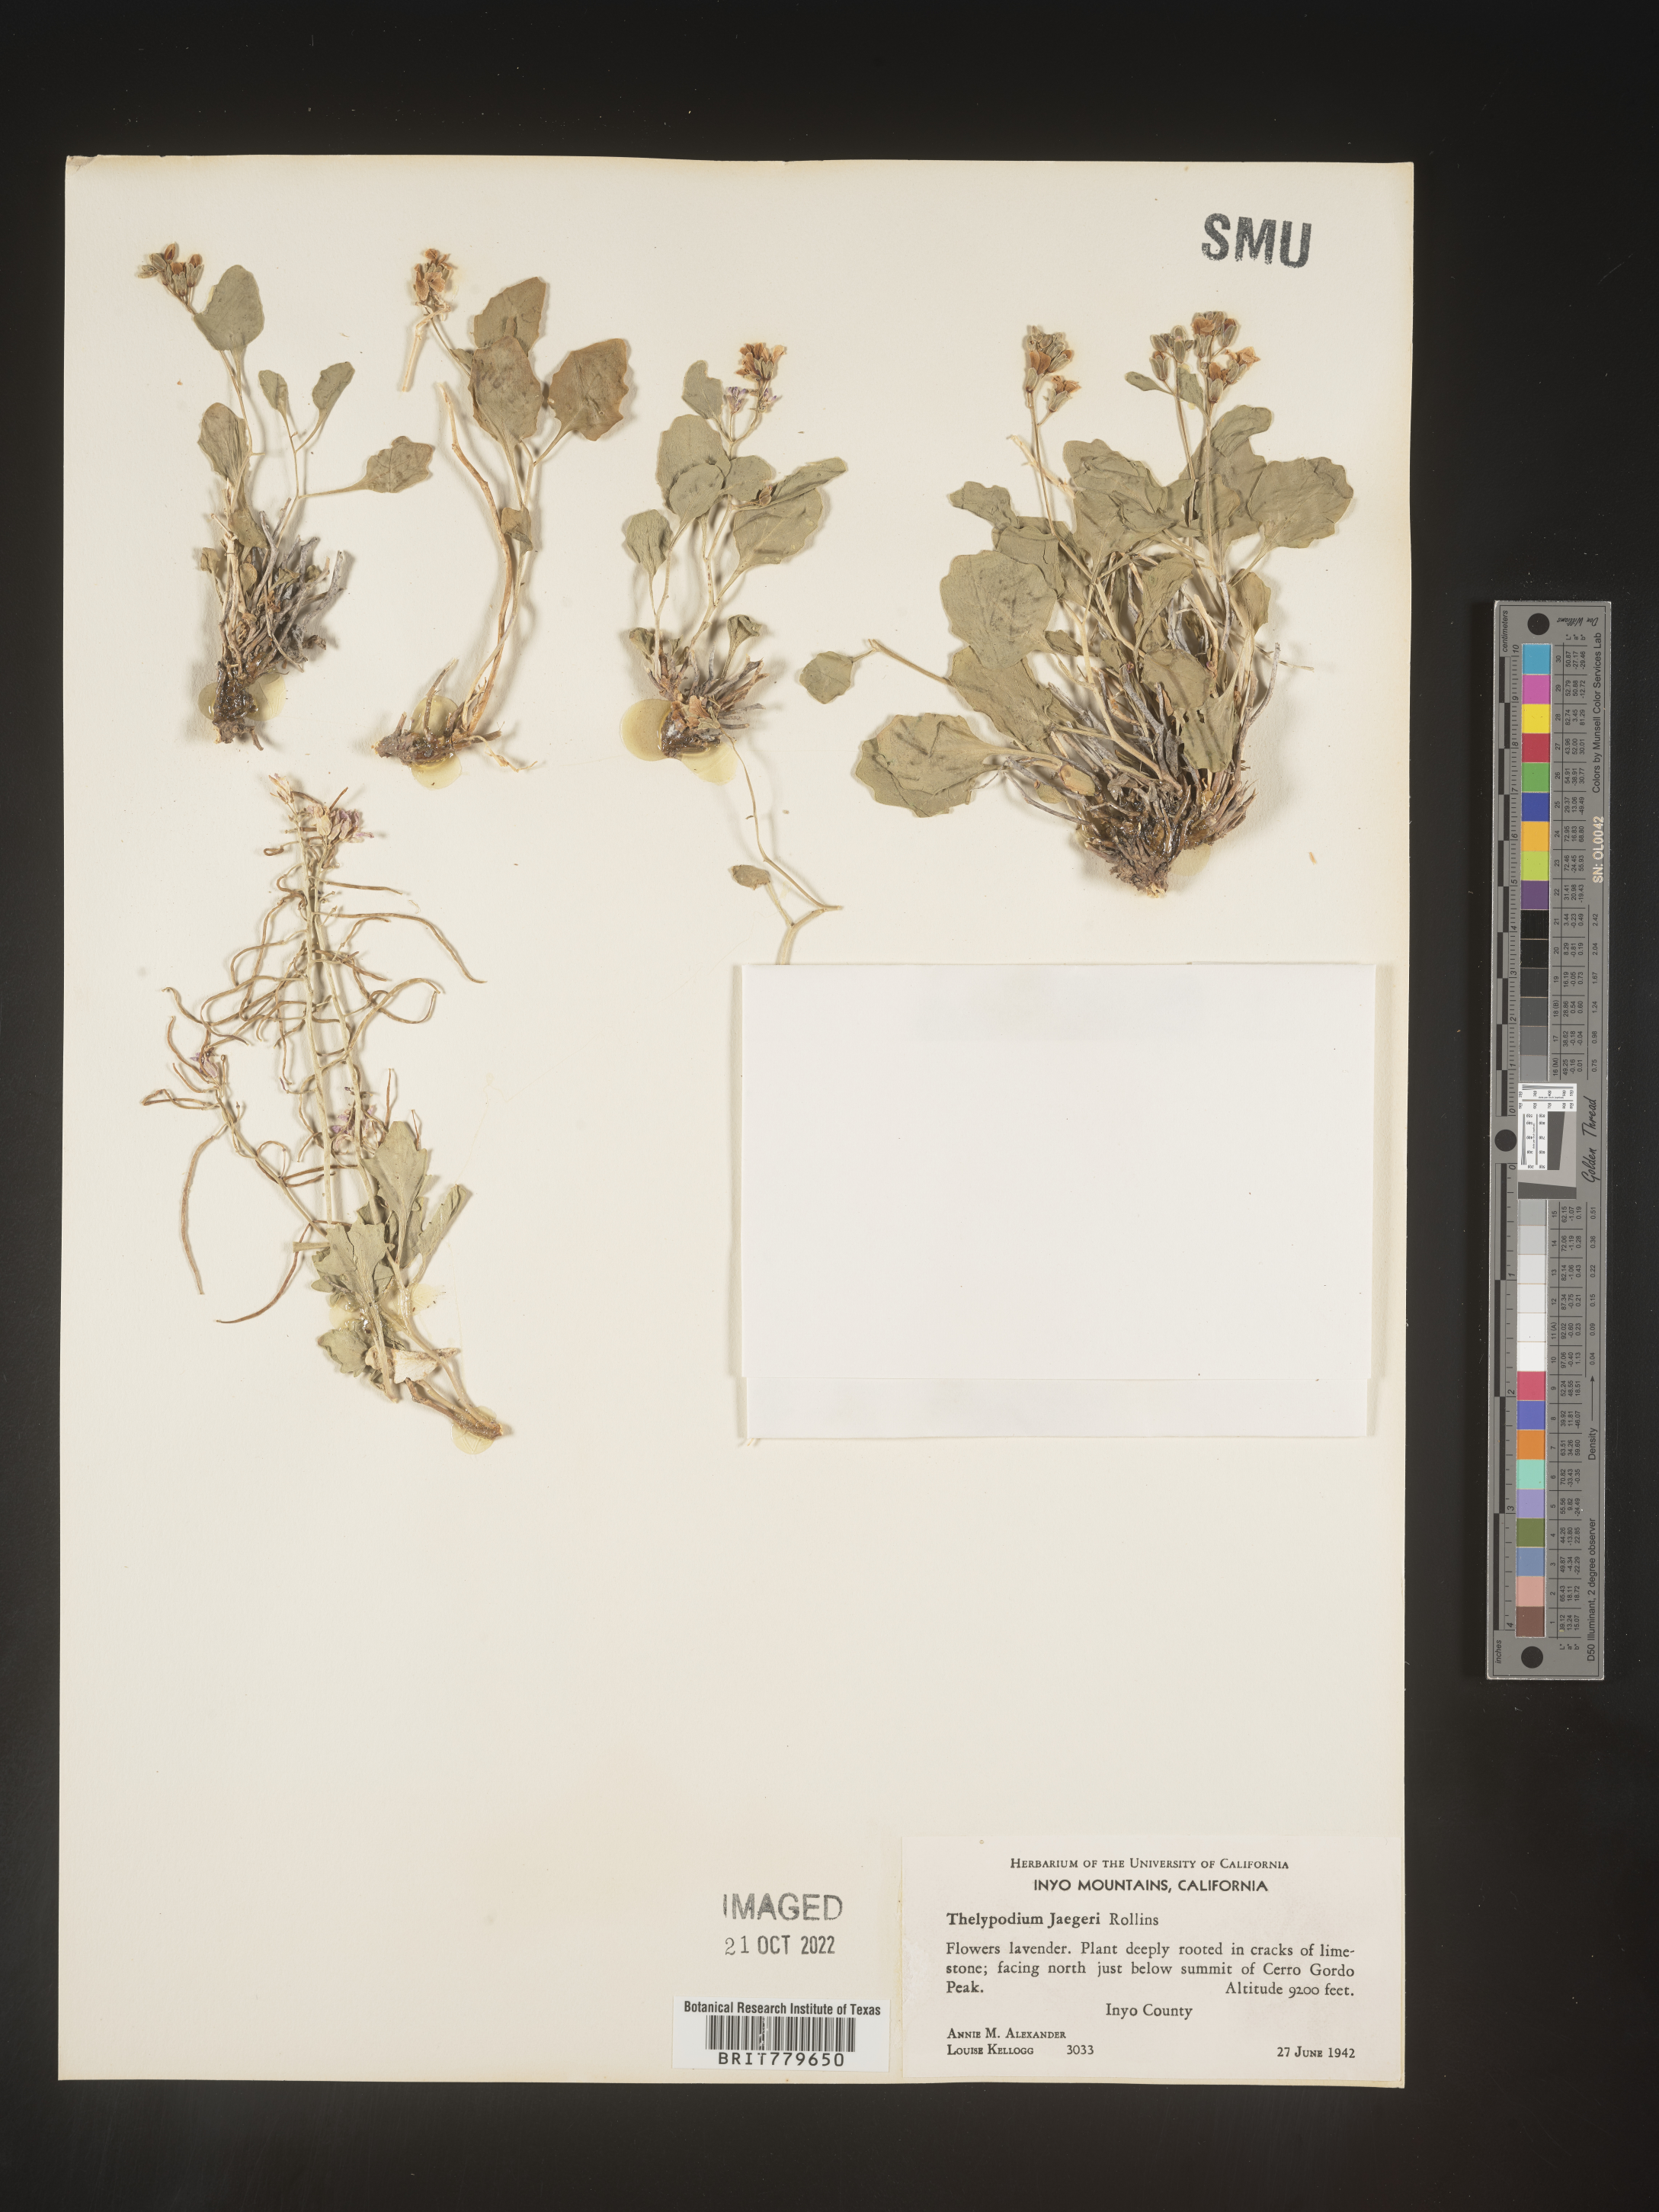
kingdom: Plantae
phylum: Tracheophyta
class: Magnoliopsida
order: Brassicales
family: Brassicaceae
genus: Thelypodium
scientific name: Thelypodium
